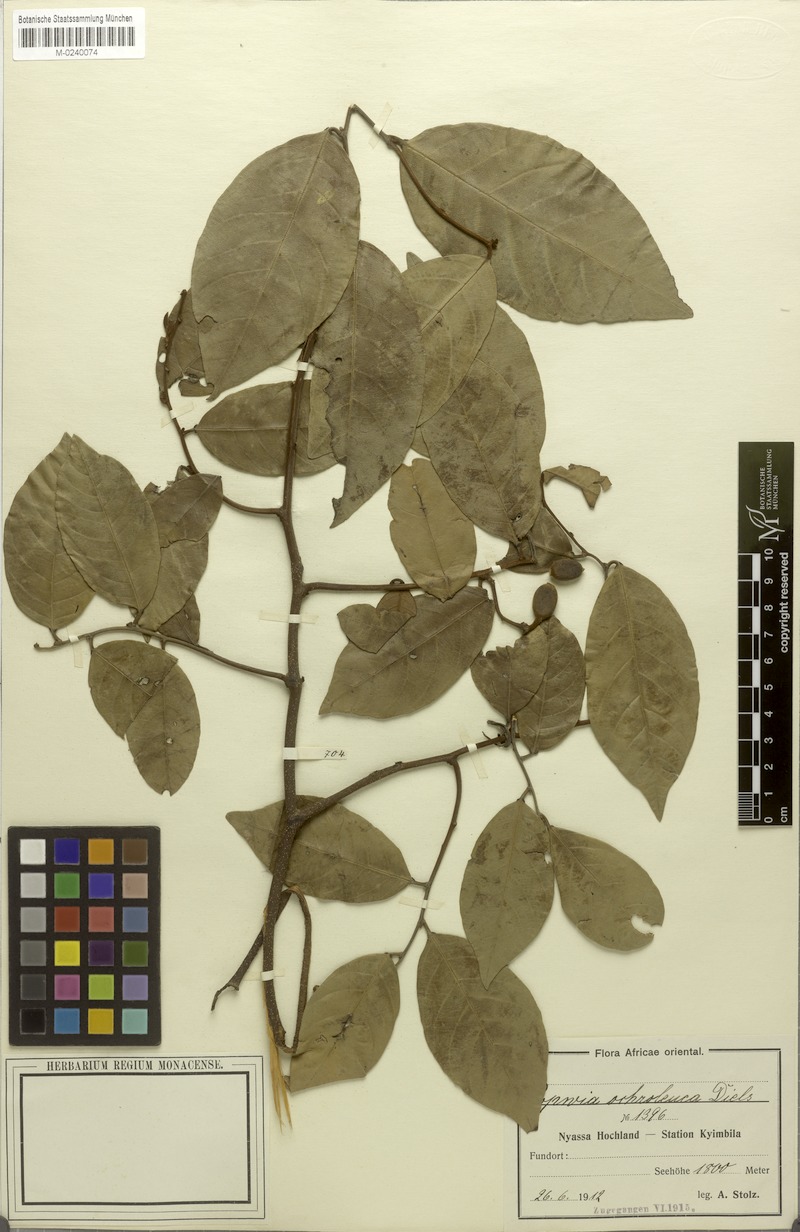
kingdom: Plantae
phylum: Tracheophyta
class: Magnoliopsida
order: Magnoliales
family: Annonaceae
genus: Monanthotaxis
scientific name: Monanthotaxis schweinfurthii
